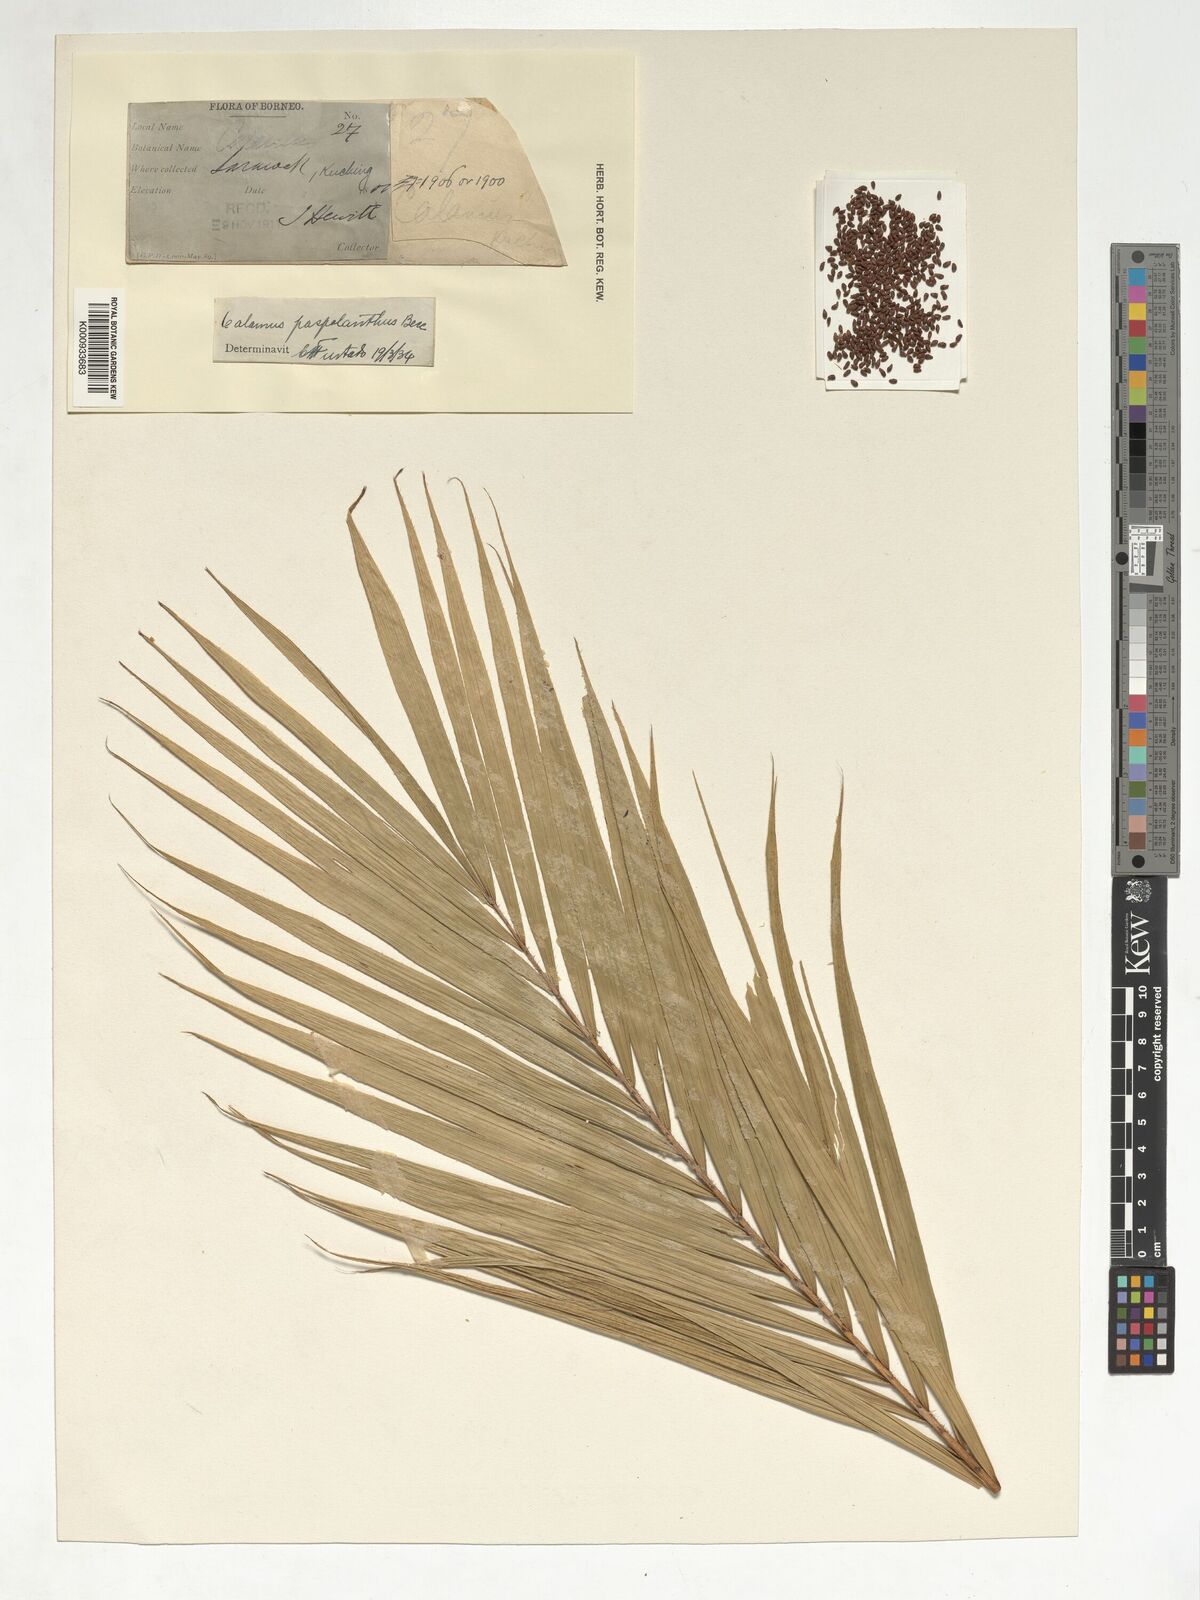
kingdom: Plantae
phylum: Tracheophyta
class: Liliopsida
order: Arecales
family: Arecaceae
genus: Calamus
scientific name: Calamus paspalanthus
